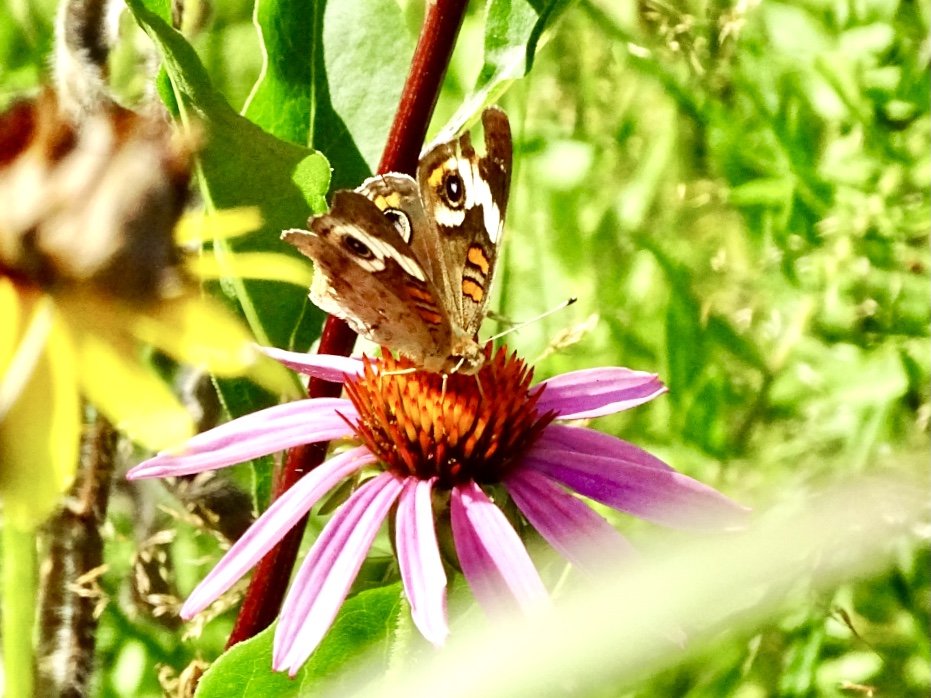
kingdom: Animalia
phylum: Arthropoda
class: Insecta
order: Lepidoptera
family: Nymphalidae
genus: Junonia
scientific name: Junonia coenia
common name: Common Buckeye
